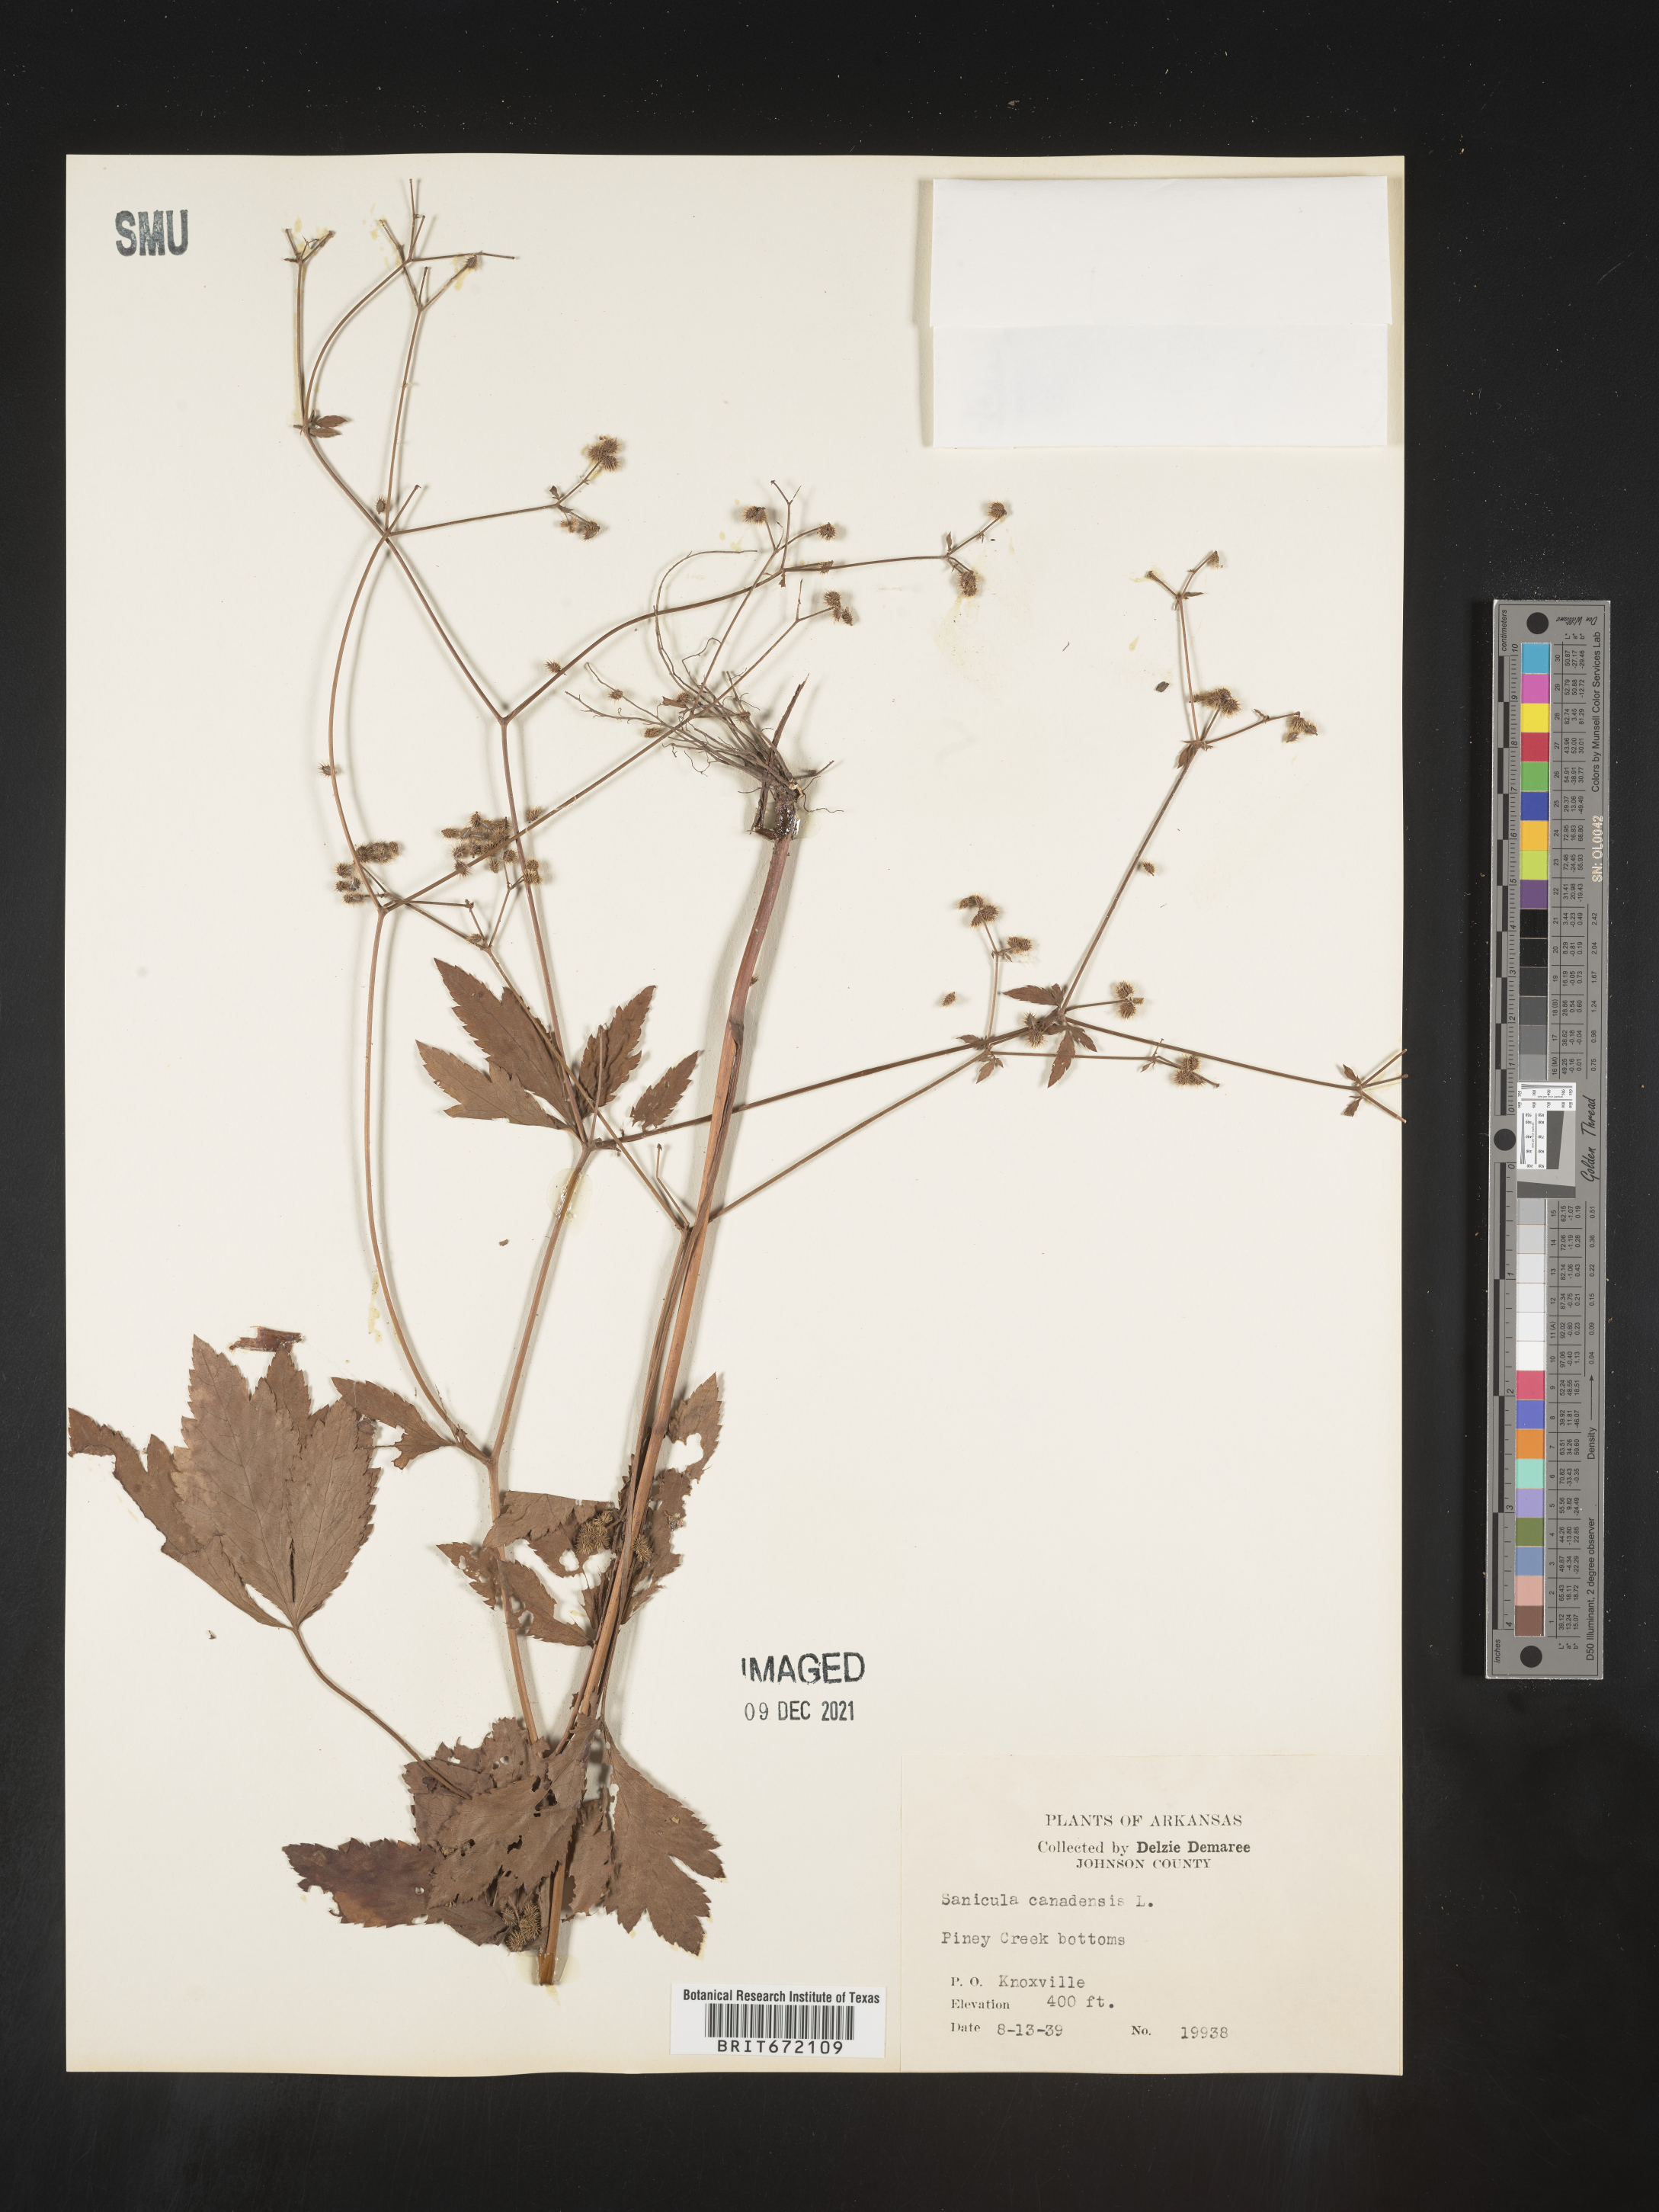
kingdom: Plantae
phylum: Tracheophyta
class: Magnoliopsida
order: Apiales
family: Apiaceae
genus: Sanicula
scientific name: Sanicula canadensis
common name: Canada sanicle
